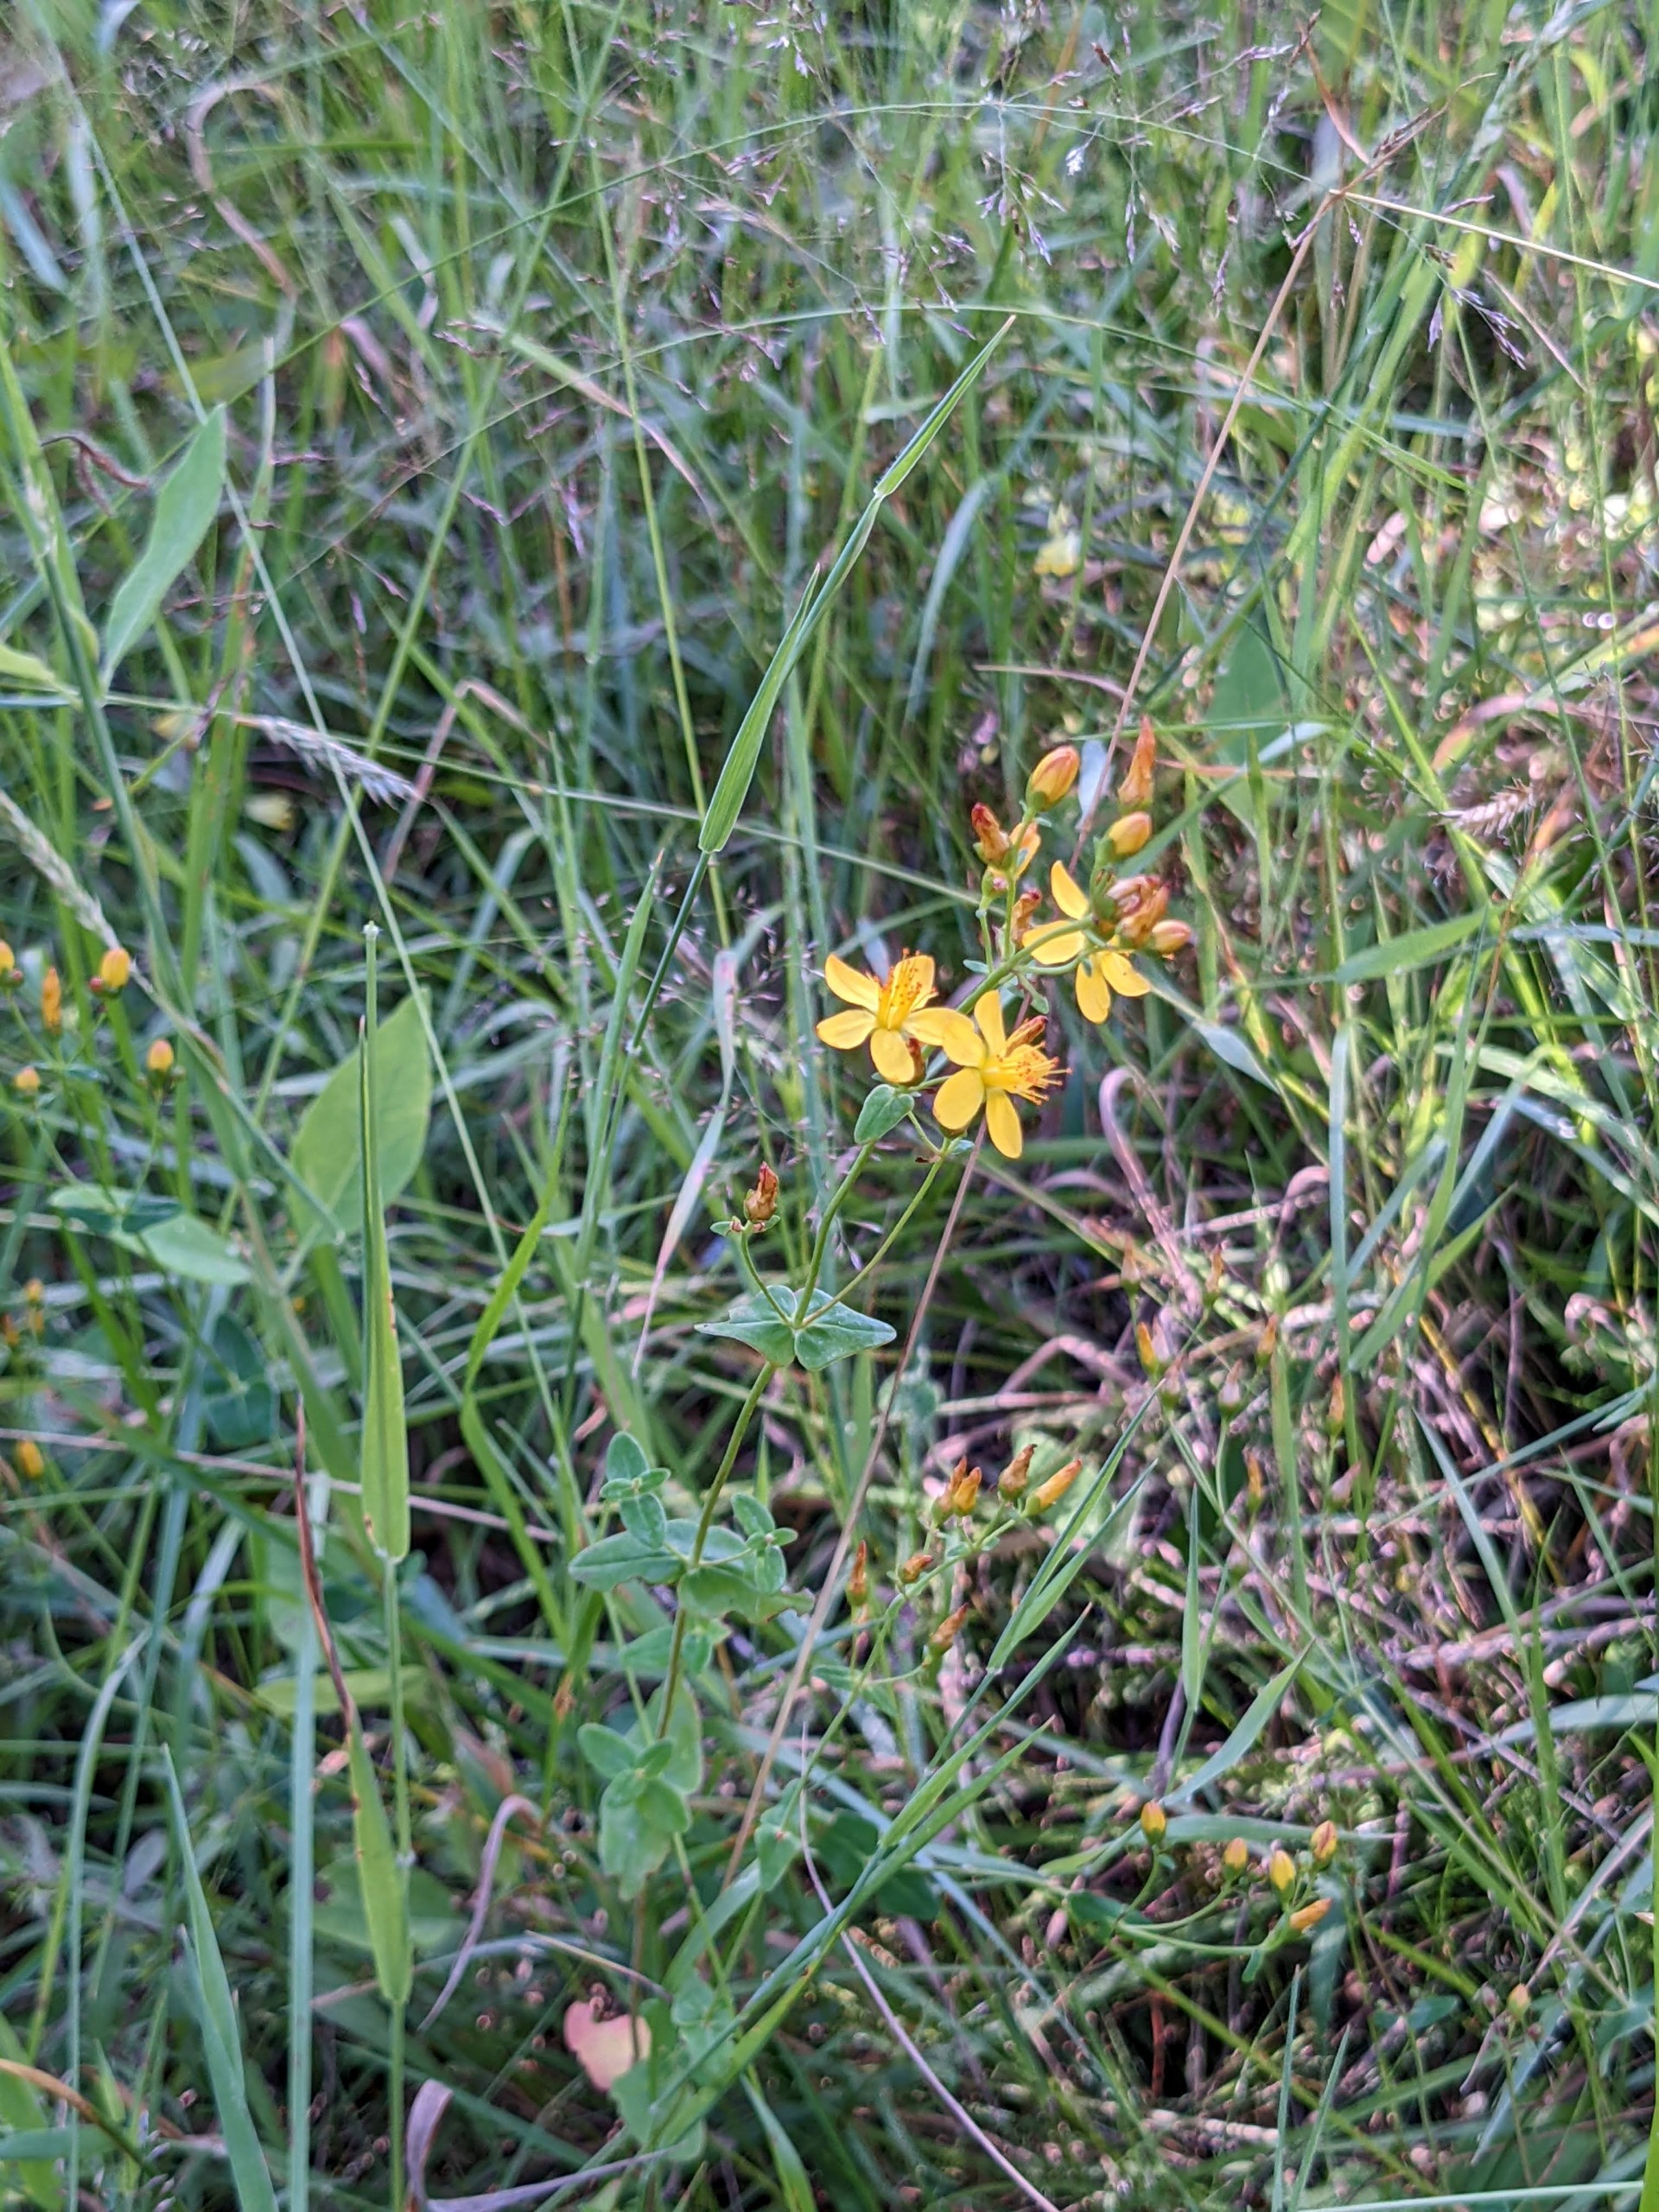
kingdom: Plantae
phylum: Tracheophyta
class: Magnoliopsida
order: Malpighiales
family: Hypericaceae
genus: Hypericum
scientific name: Hypericum pulchrum
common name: Smuk perikon
